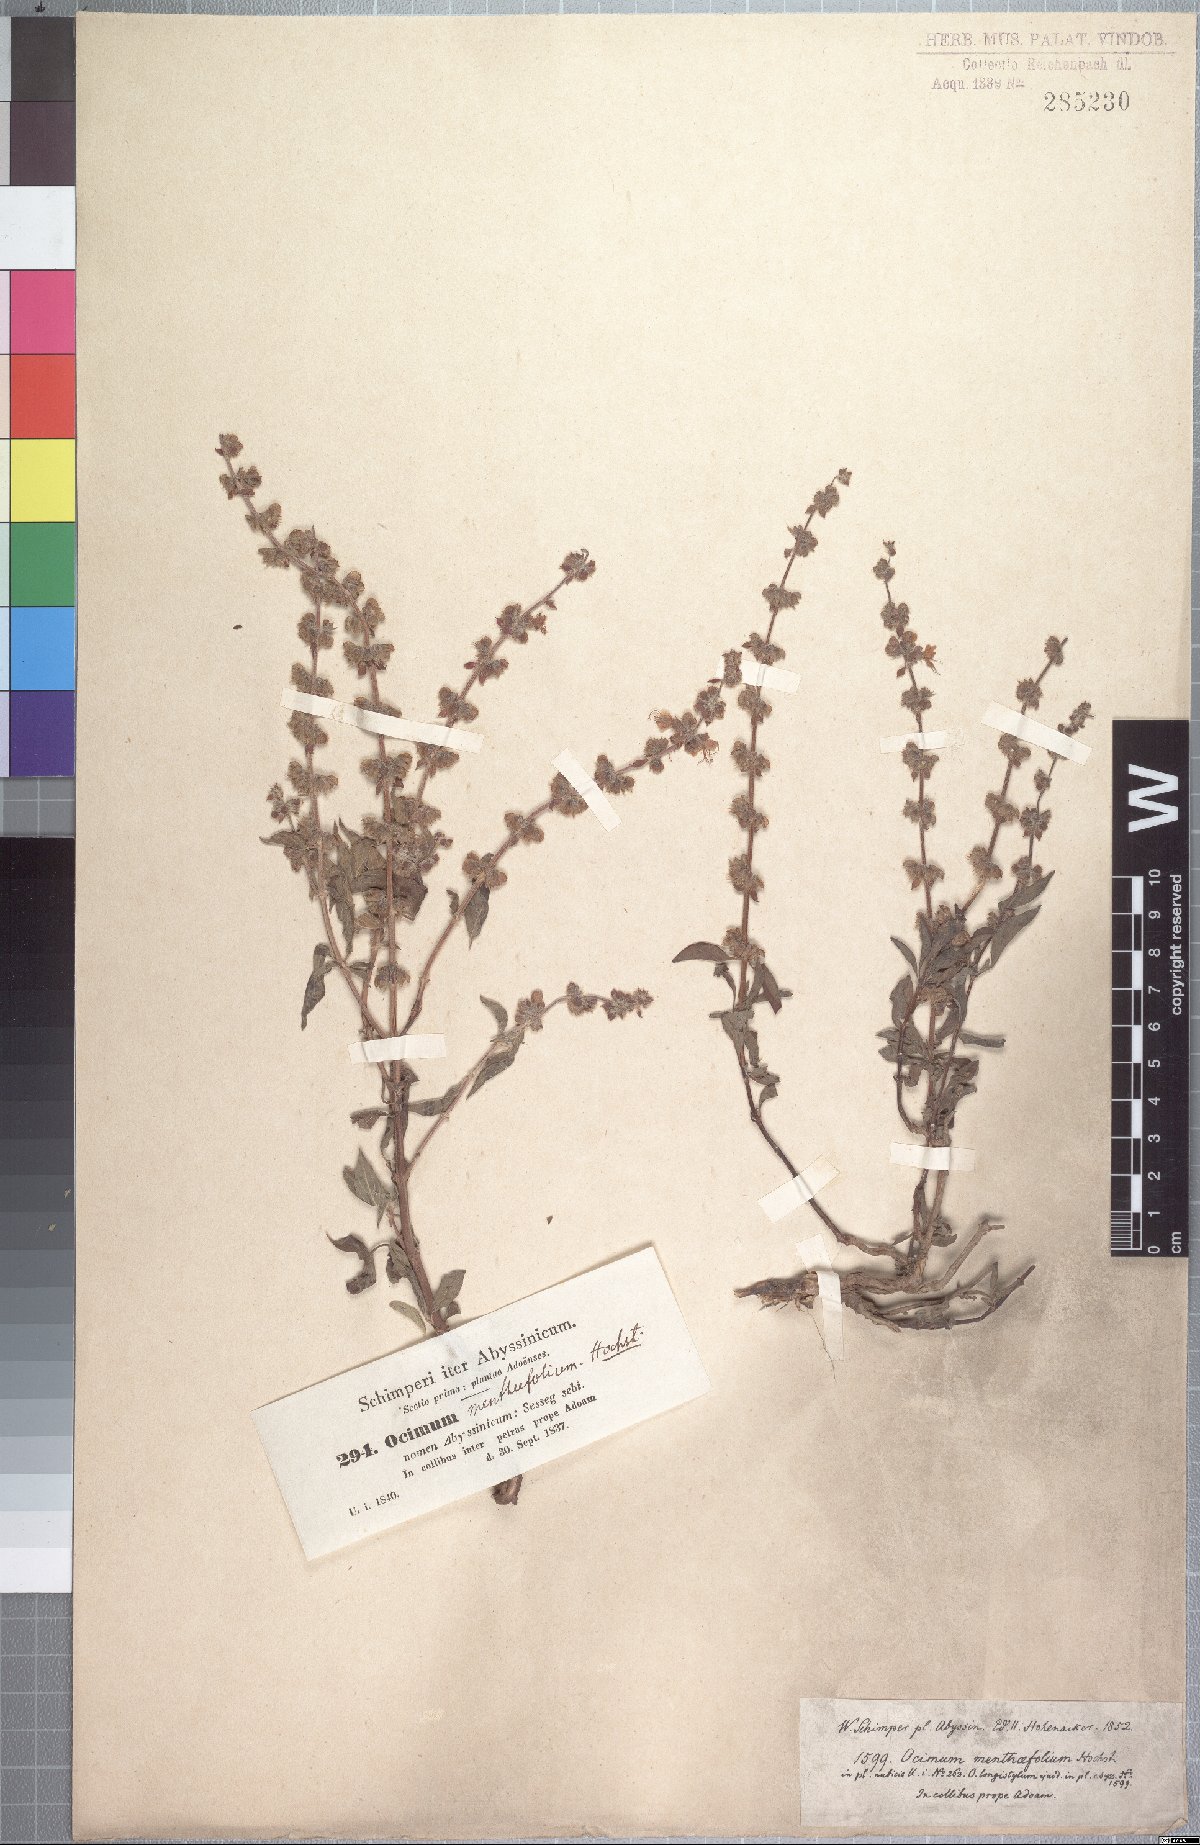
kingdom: Plantae
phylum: Tracheophyta
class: Magnoliopsida
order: Lamiales
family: Lamiaceae
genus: Ocimum
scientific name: Ocimum forskoelei
